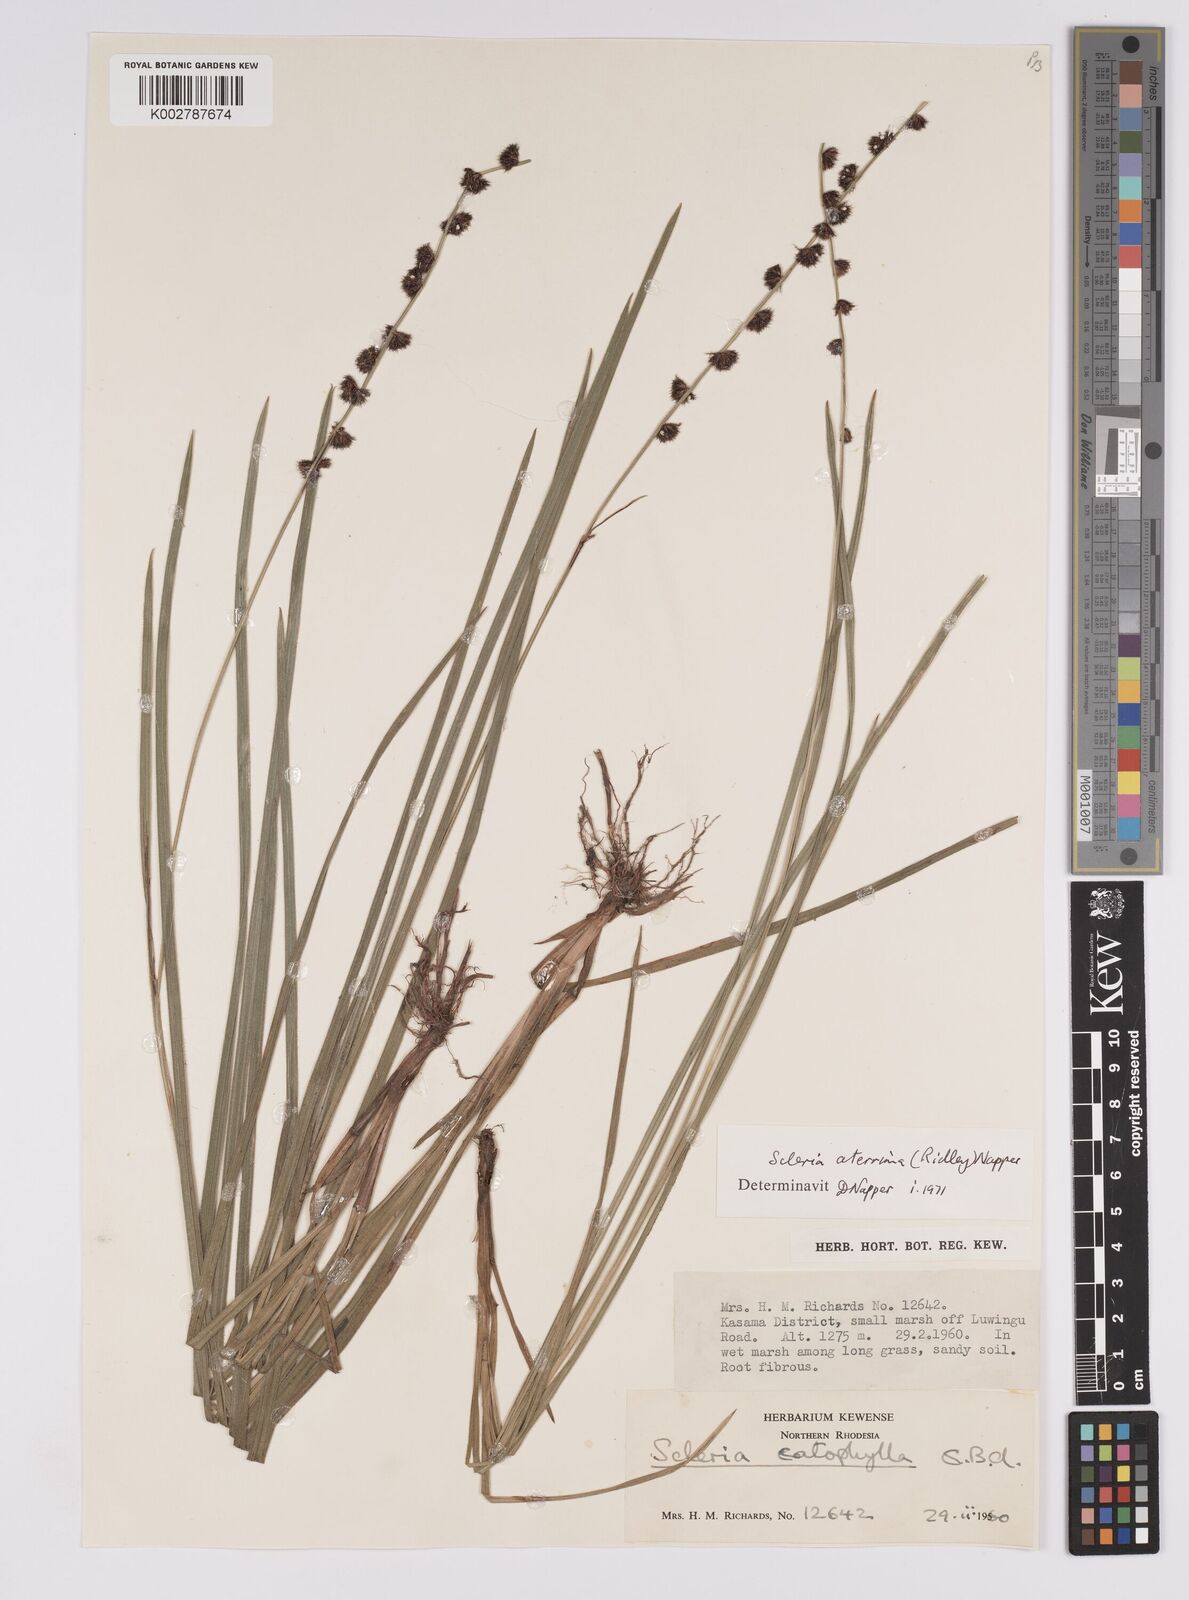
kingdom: Plantae
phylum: Tracheophyta
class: Liliopsida
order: Poales
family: Cyperaceae
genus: Scleria
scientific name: Scleria catophylla
